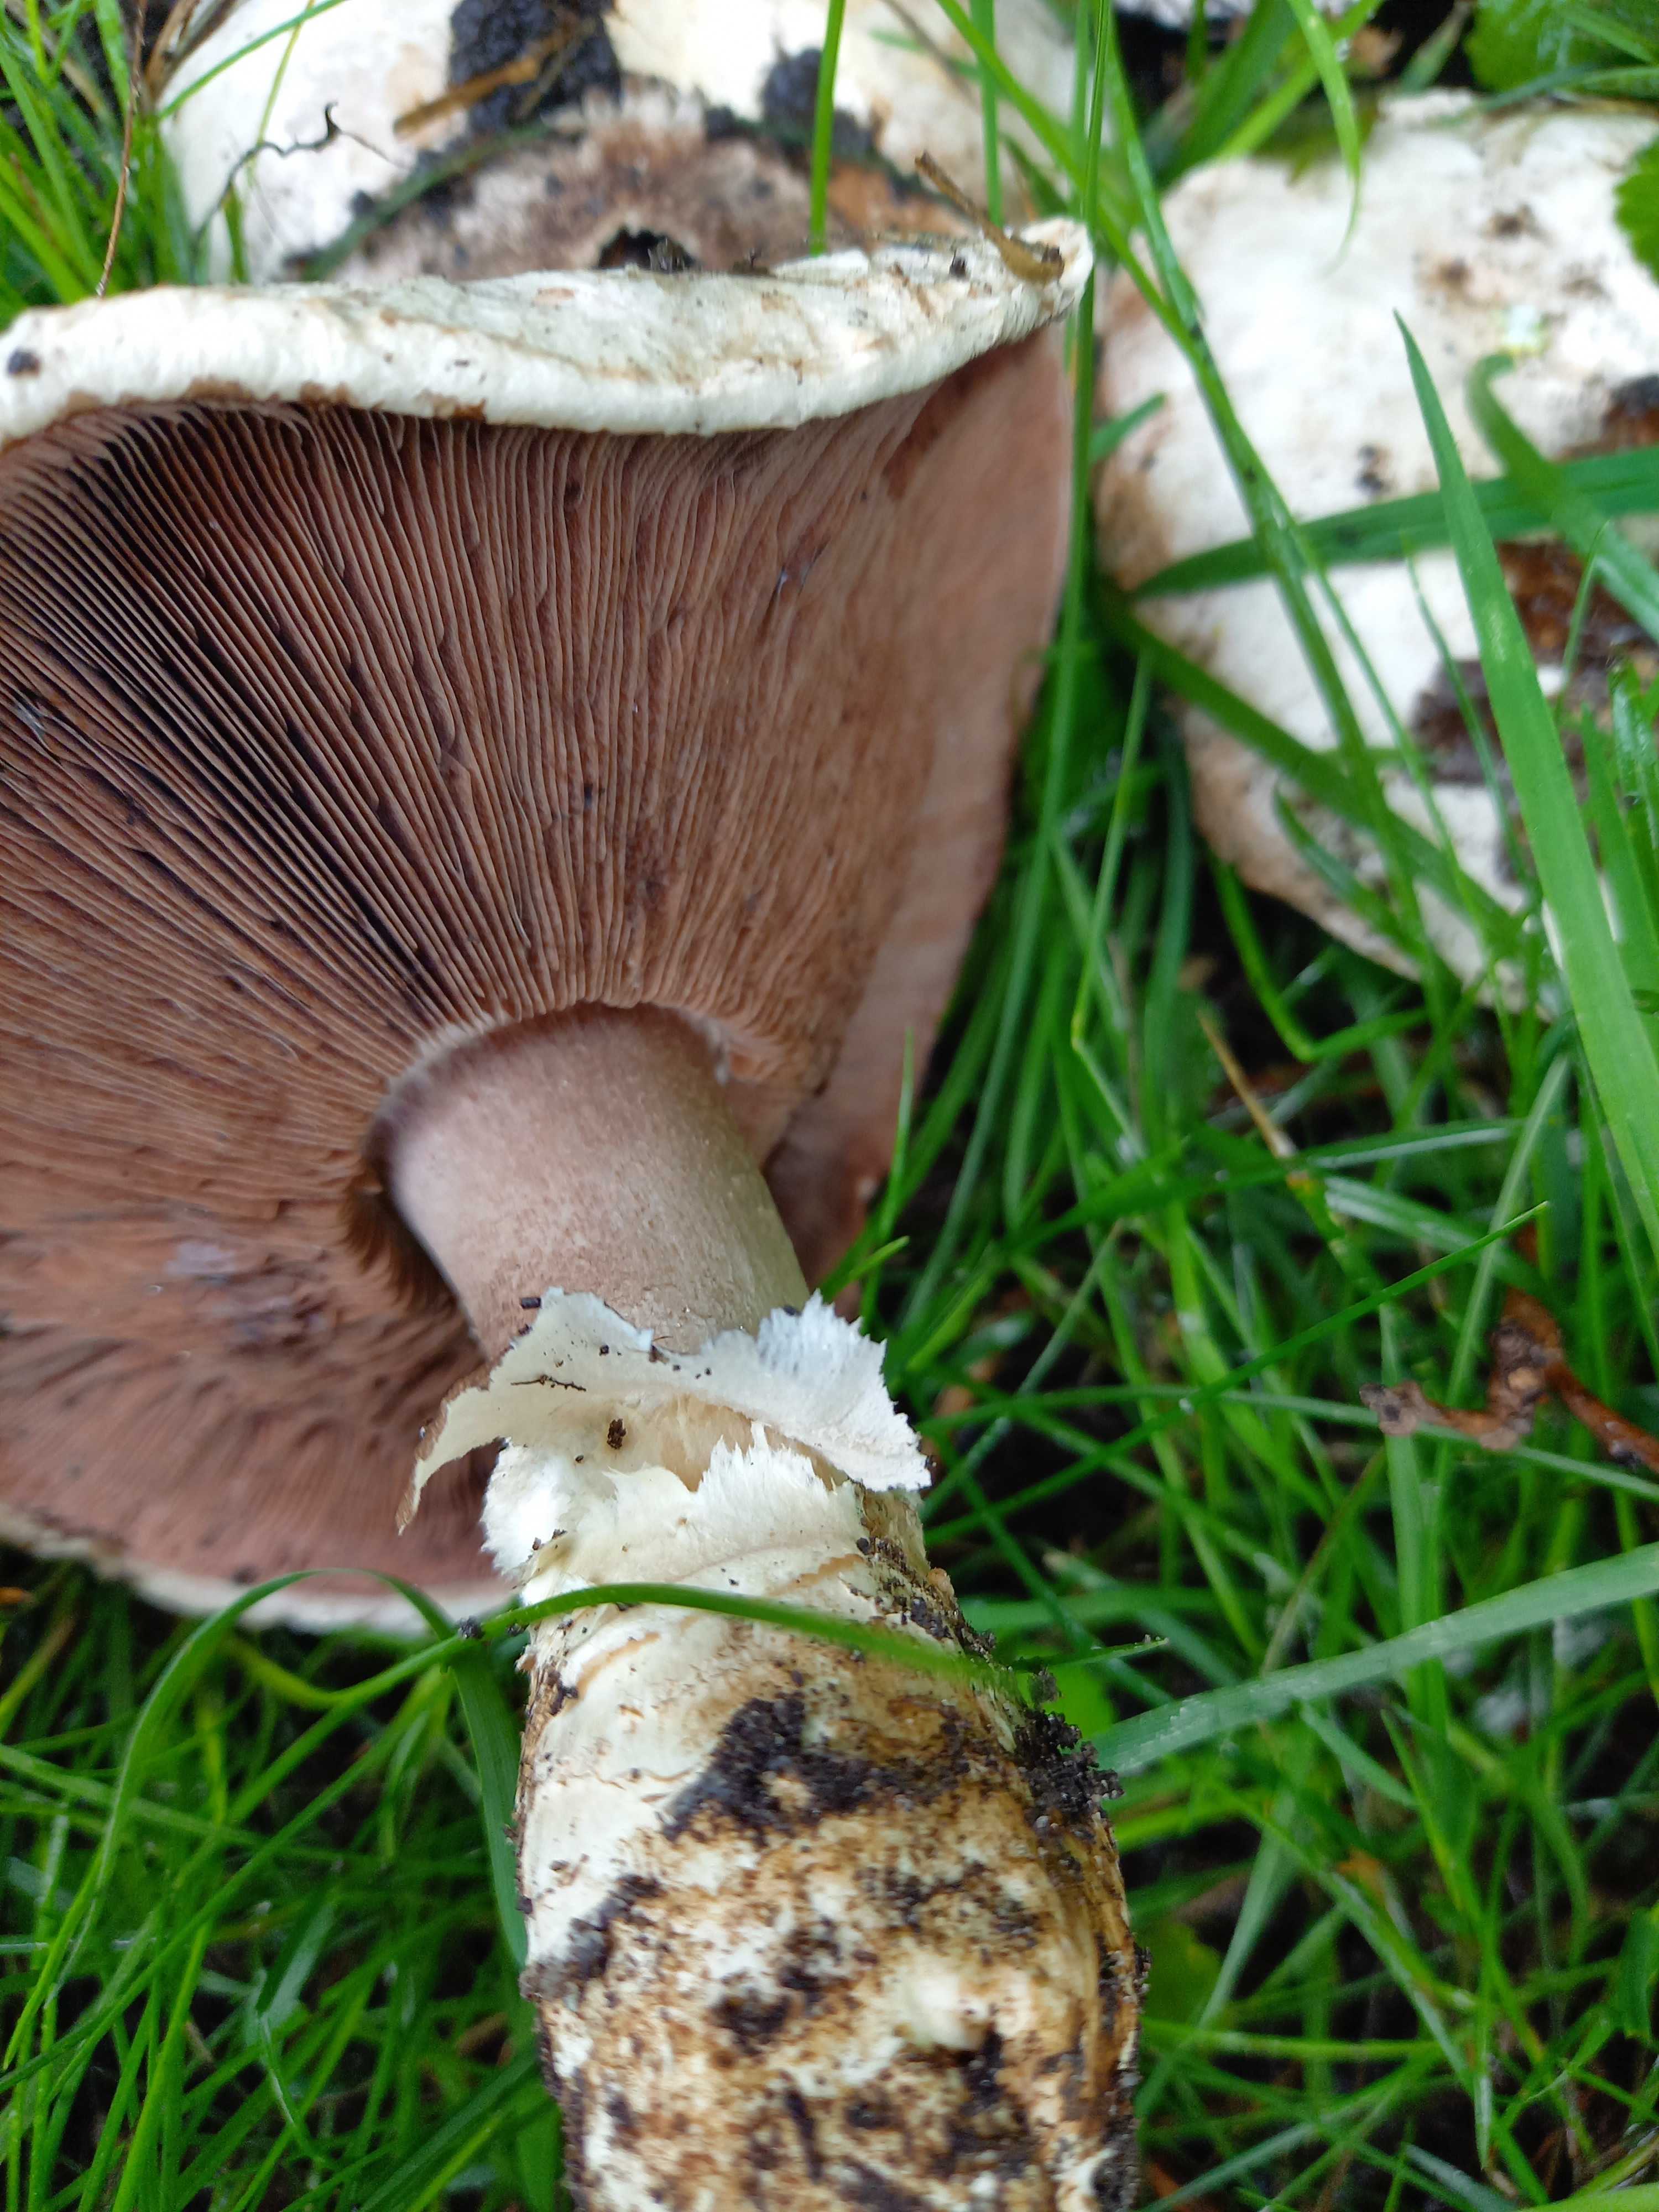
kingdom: Fungi
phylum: Basidiomycota
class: Agaricomycetes
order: Agaricales
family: Agaricaceae
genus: Agaricus
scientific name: Agaricus bitorquis
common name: vej-champignon
